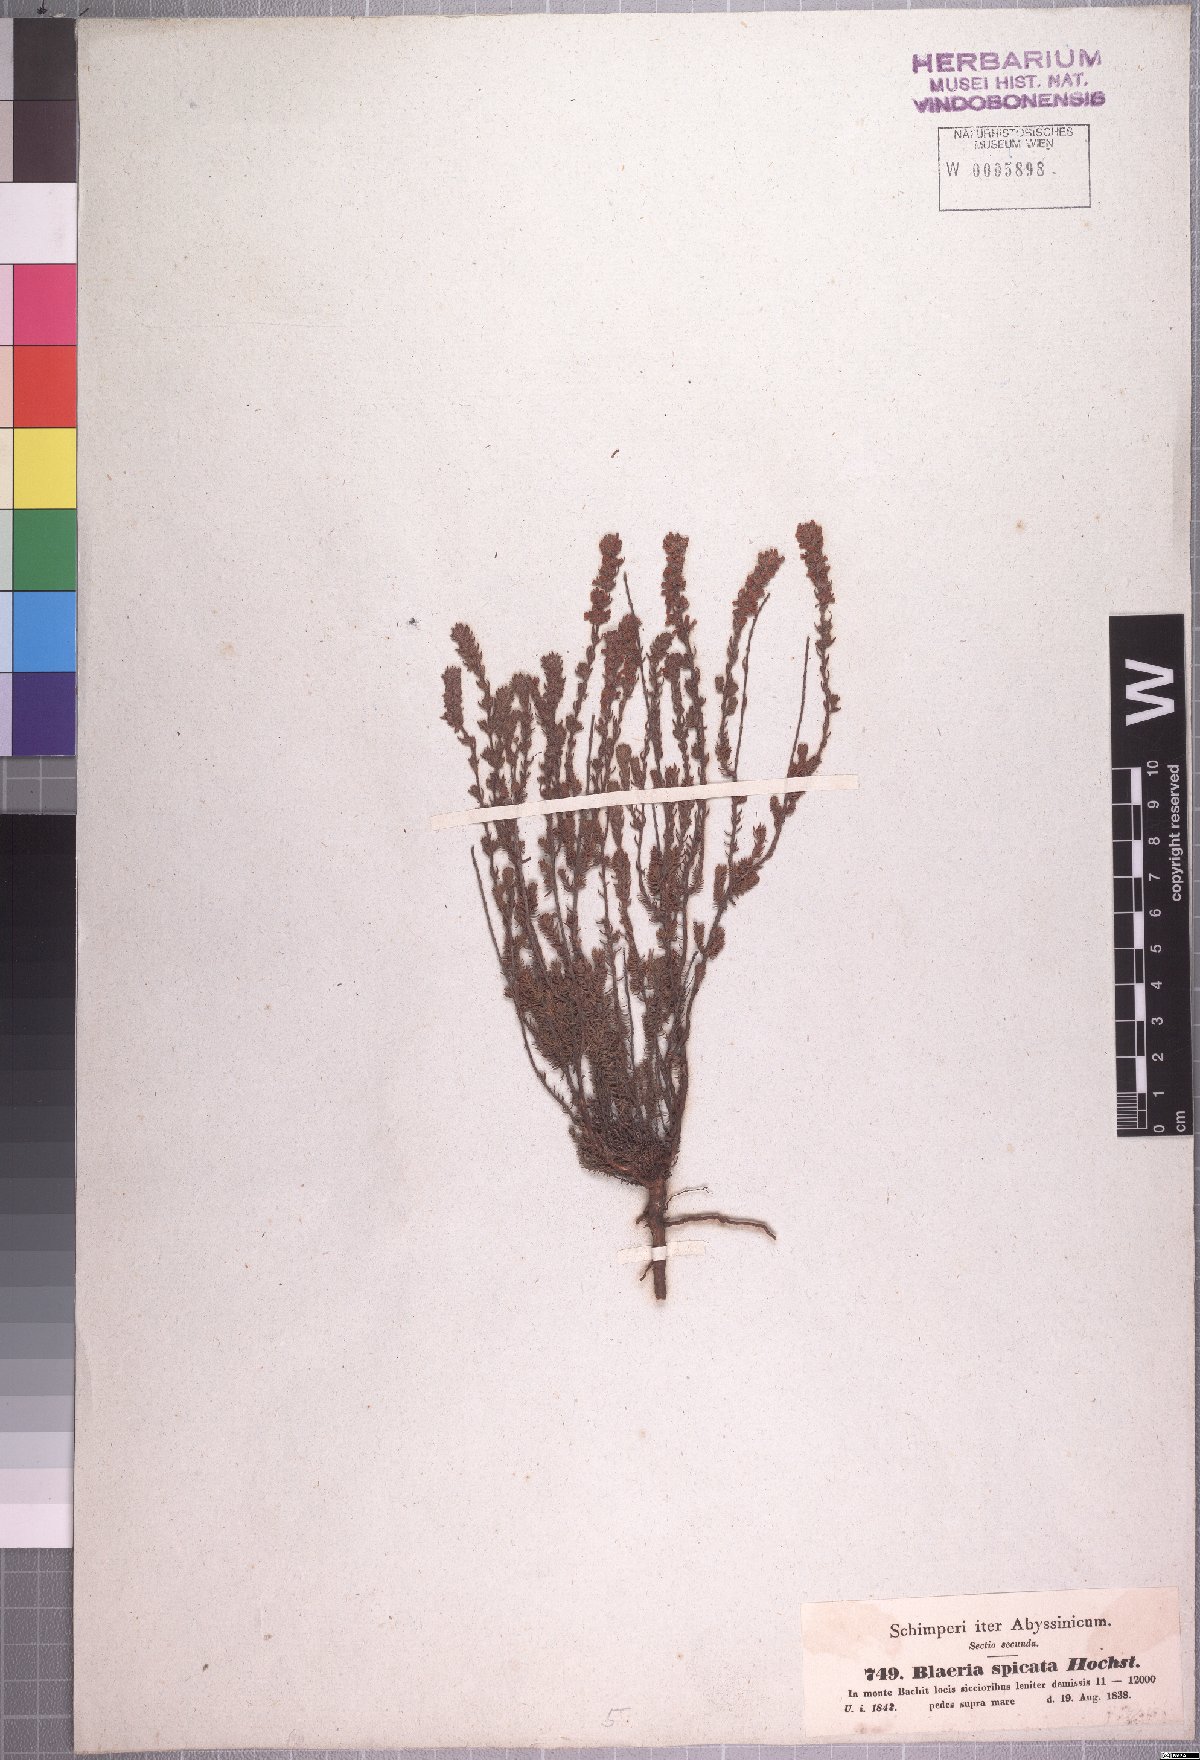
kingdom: Plantae
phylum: Tracheophyta
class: Magnoliopsida
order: Ericales
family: Ericaceae
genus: Erica
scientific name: Erica silvatica
